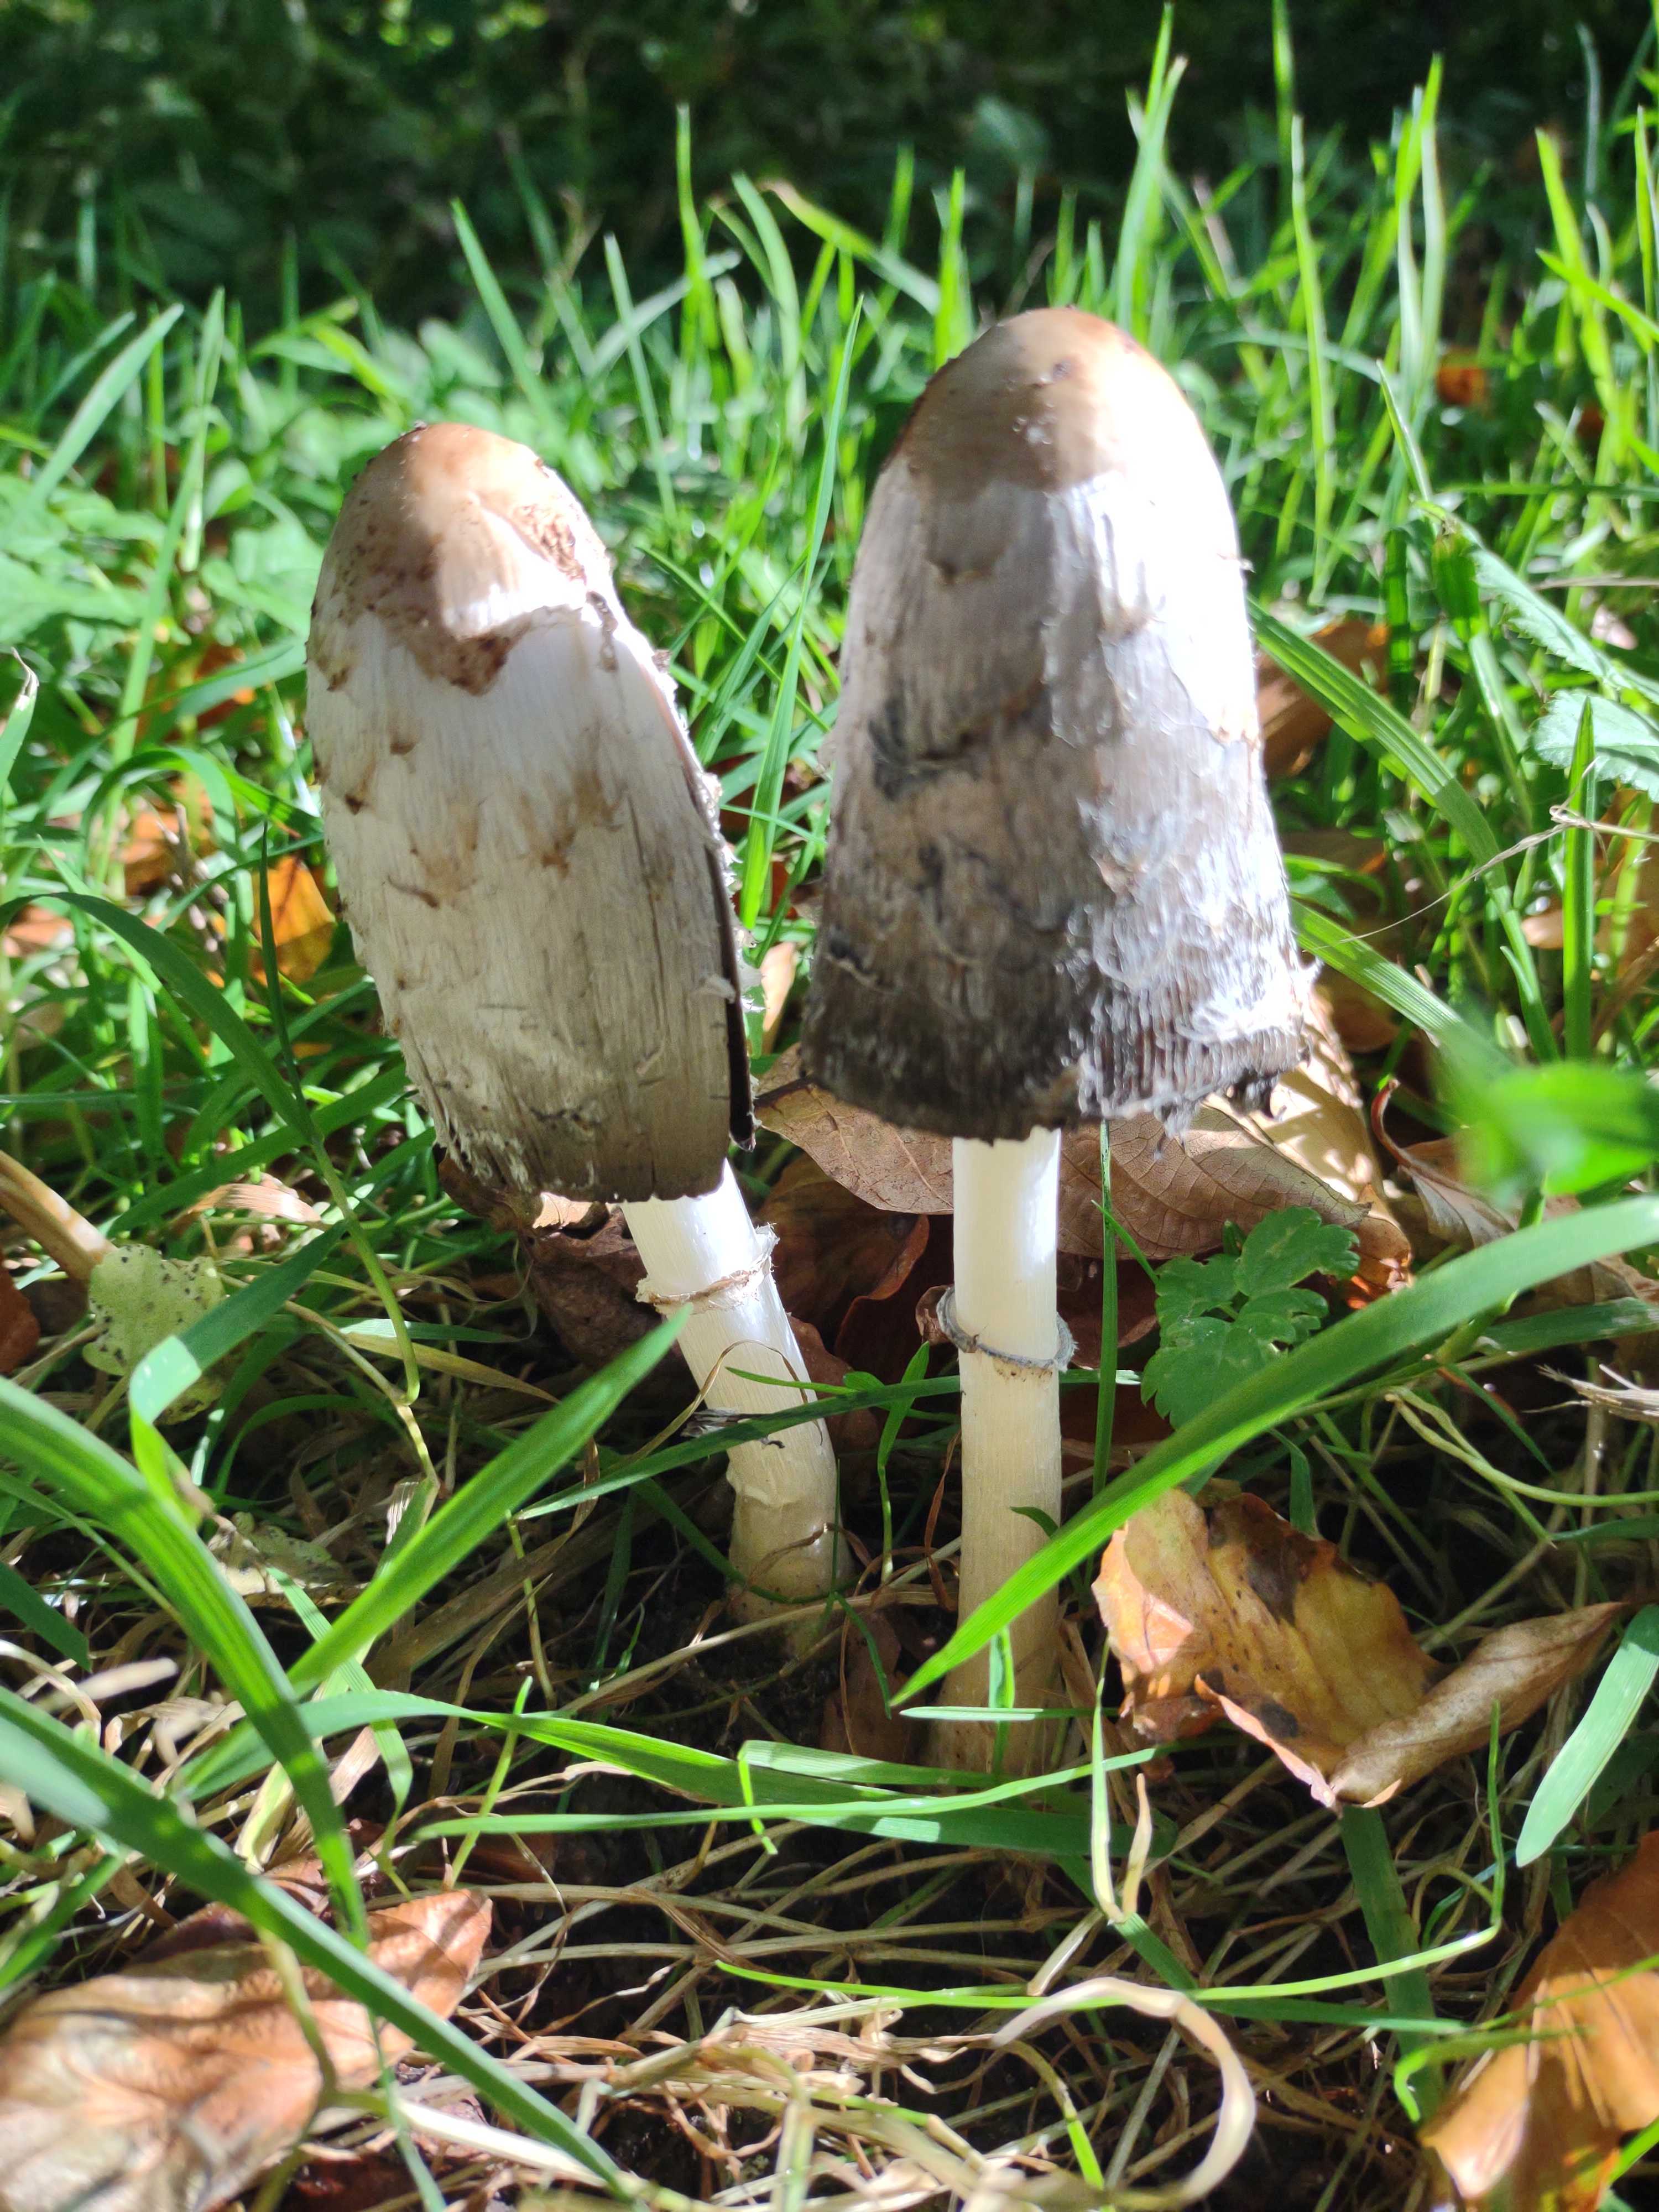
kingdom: Fungi
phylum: Basidiomycota
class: Agaricomycetes
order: Agaricales
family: Agaricaceae
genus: Coprinus
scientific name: Coprinus comatus
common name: stor parykhat
